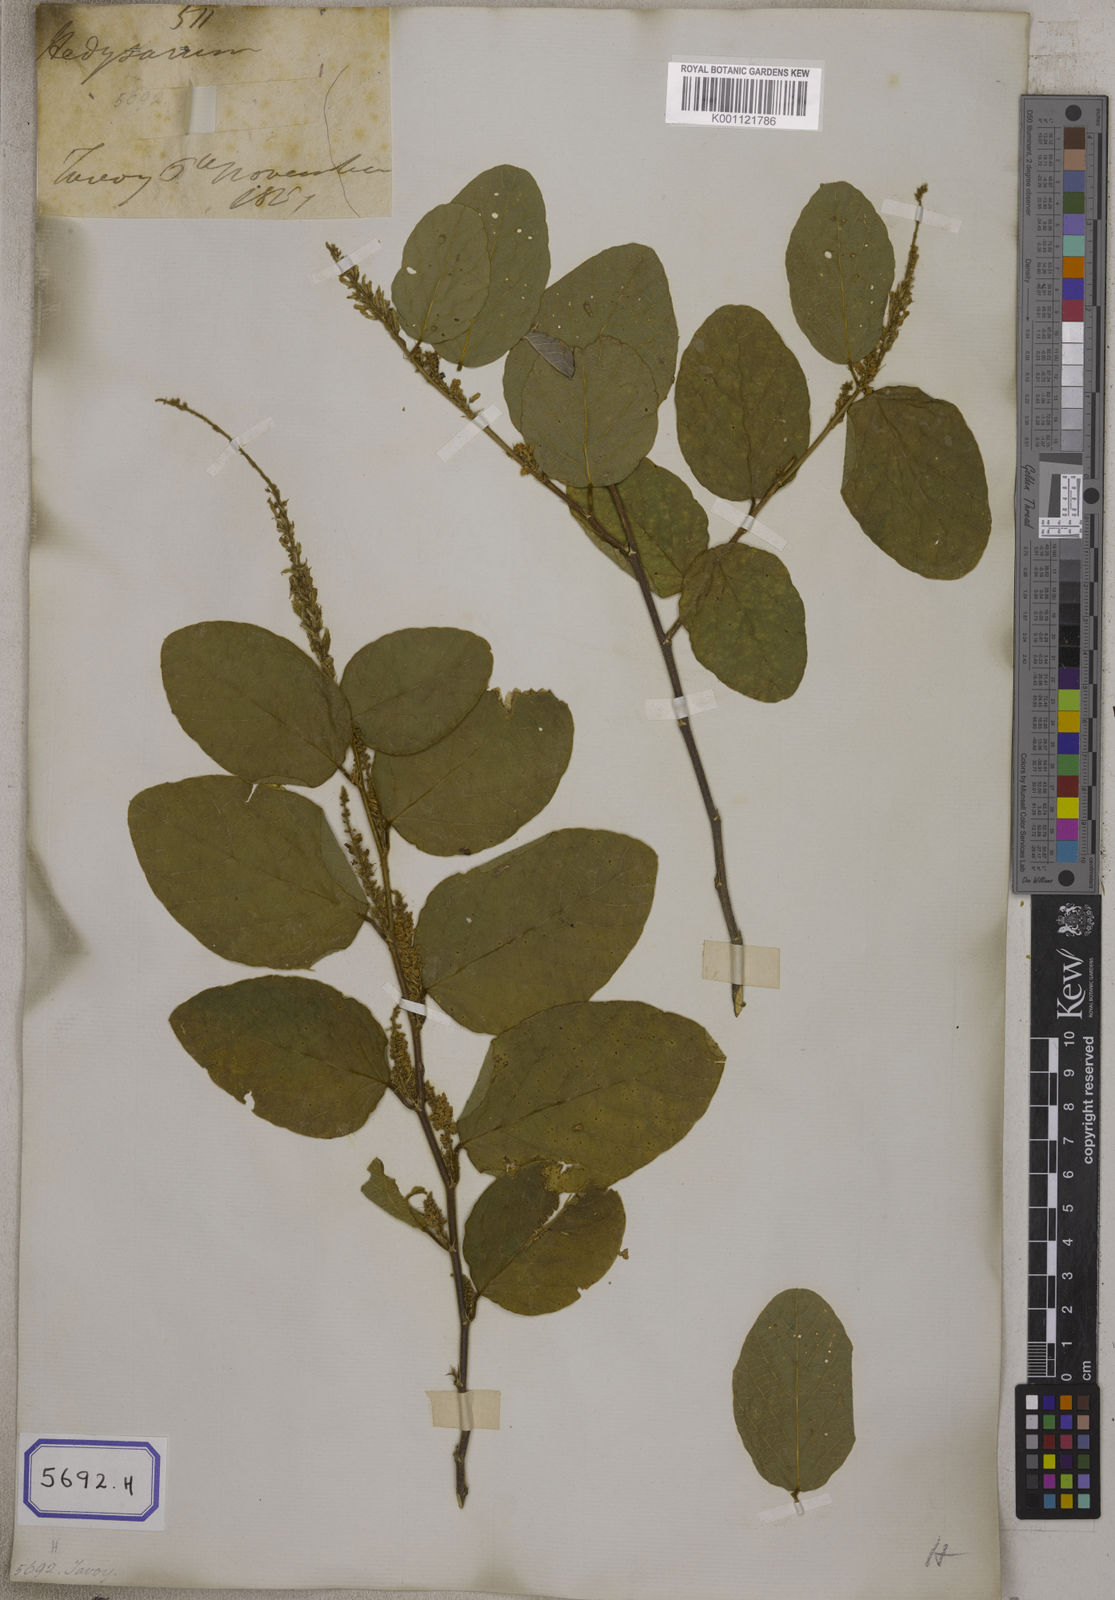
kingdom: Plantae
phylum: Tracheophyta
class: Magnoliopsida
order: Fabales
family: Fabaceae
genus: Polhillides
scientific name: Polhillides velutina
